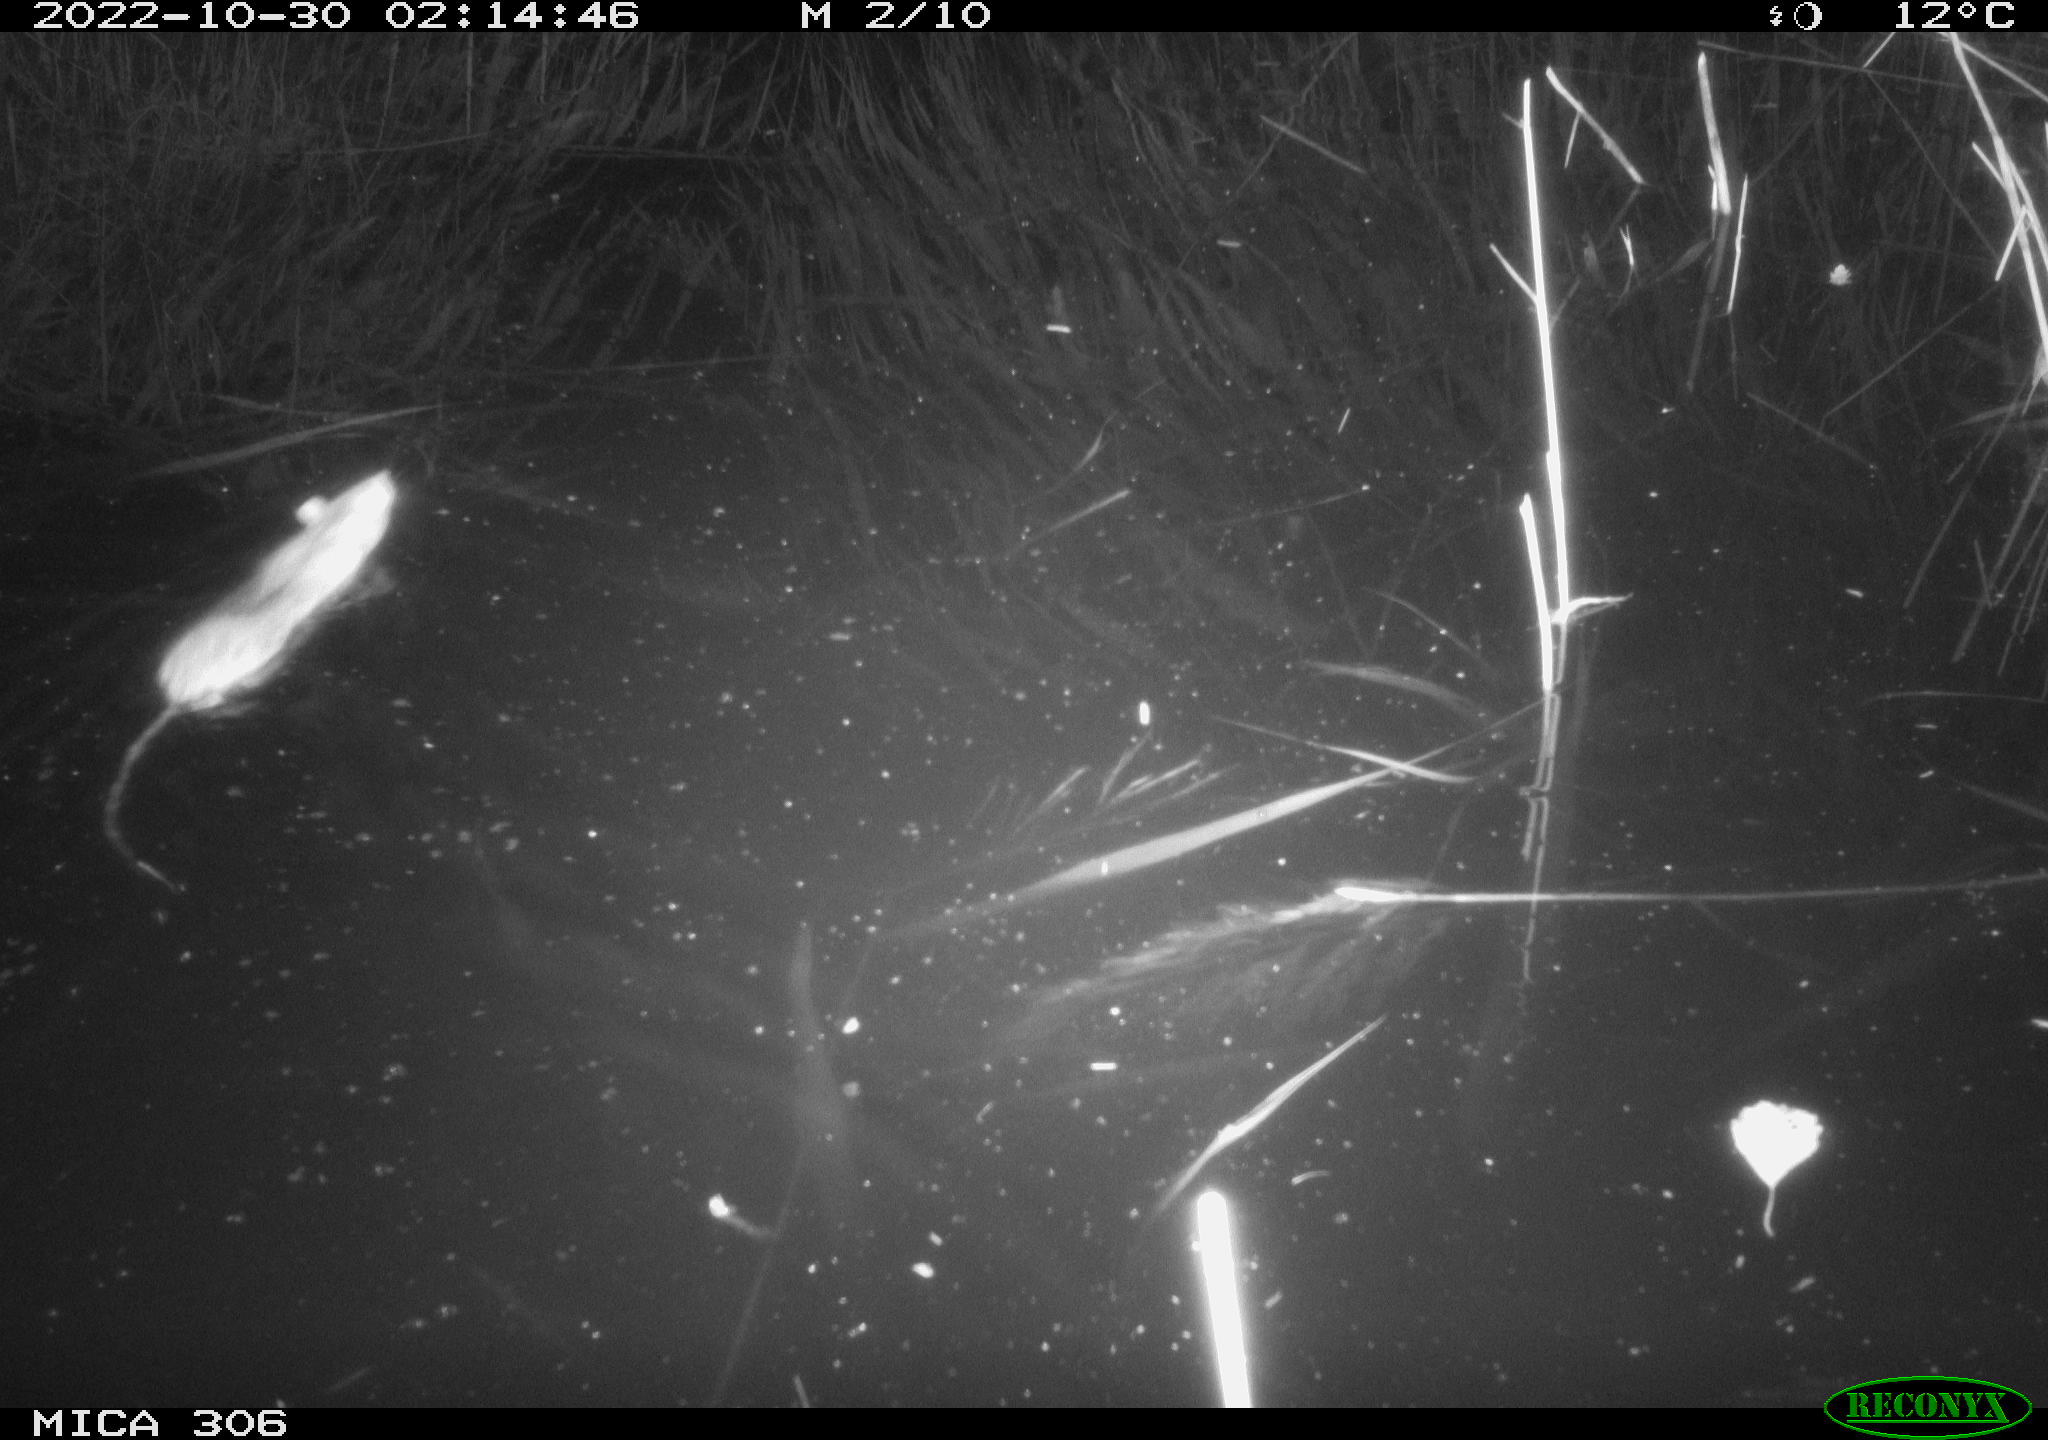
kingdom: Animalia
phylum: Chordata
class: Mammalia
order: Rodentia
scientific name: Rodentia
